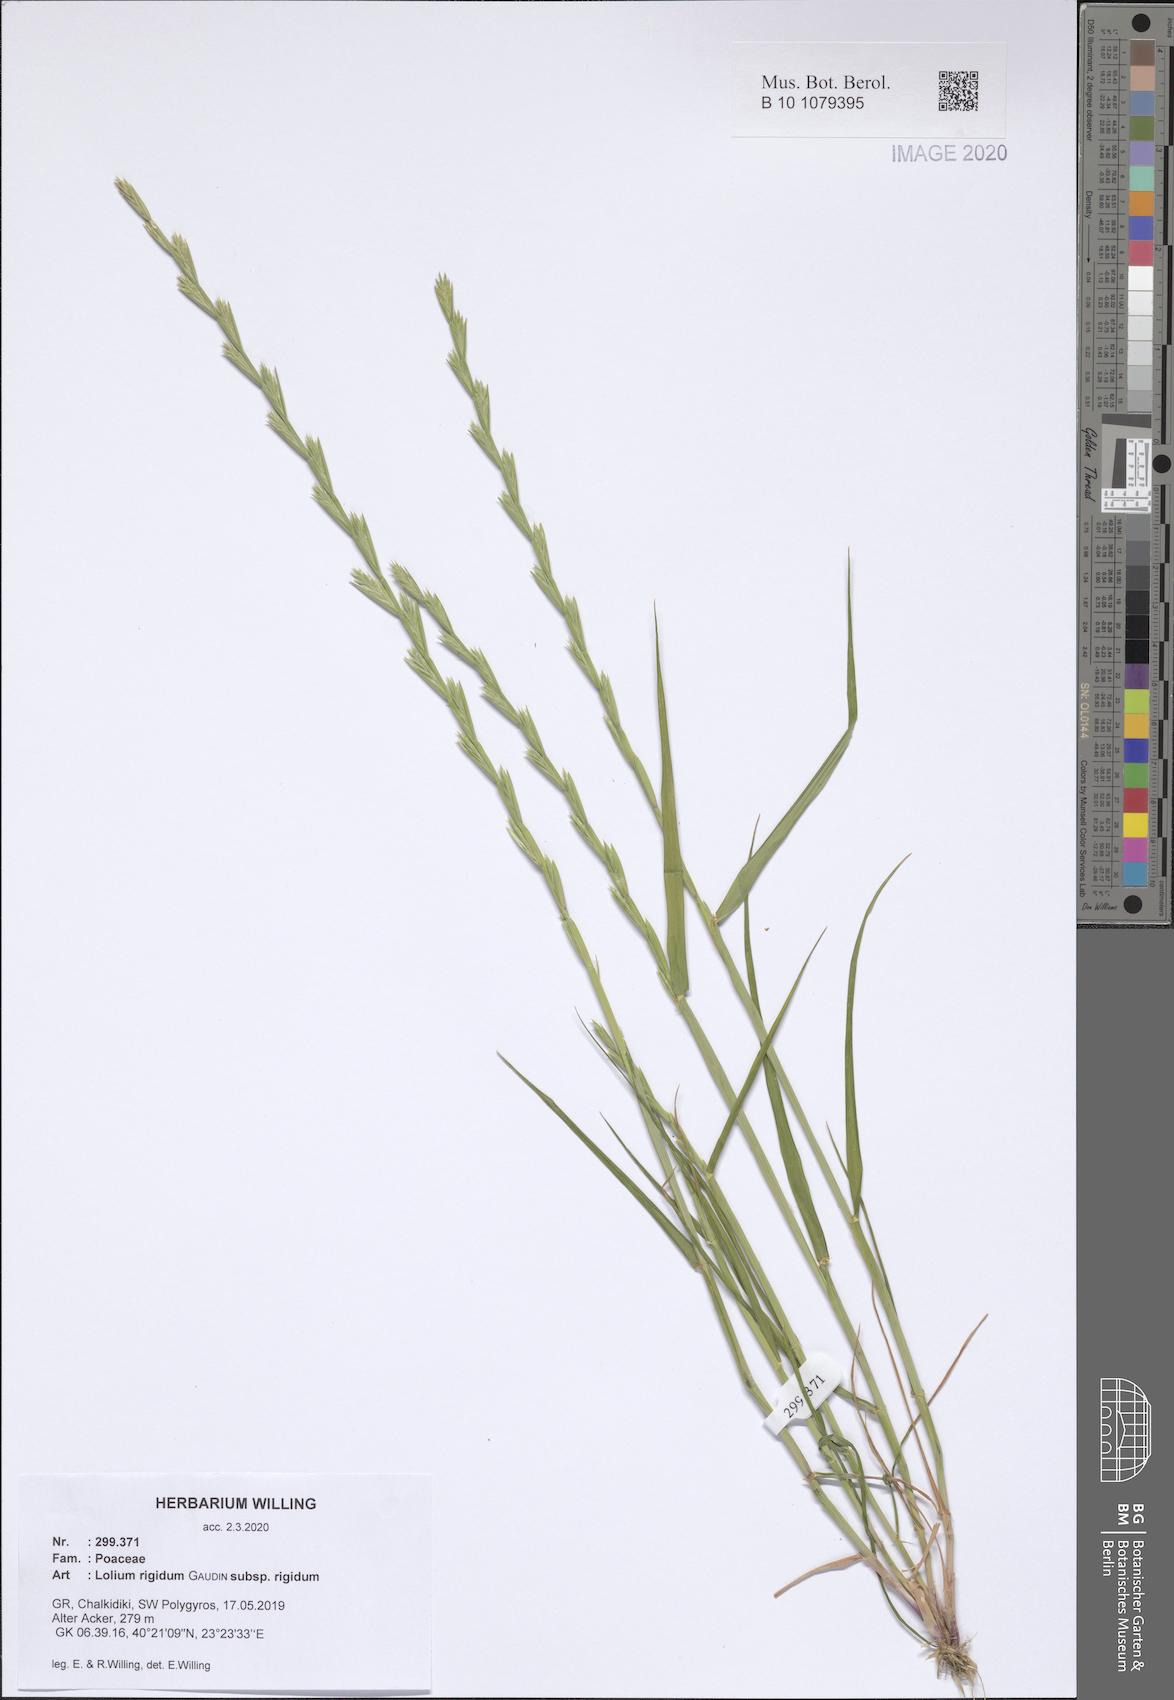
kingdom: Plantae
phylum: Tracheophyta
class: Liliopsida
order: Poales
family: Poaceae
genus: Lolium
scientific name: Lolium rigidum
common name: Wimmera ryegrass
